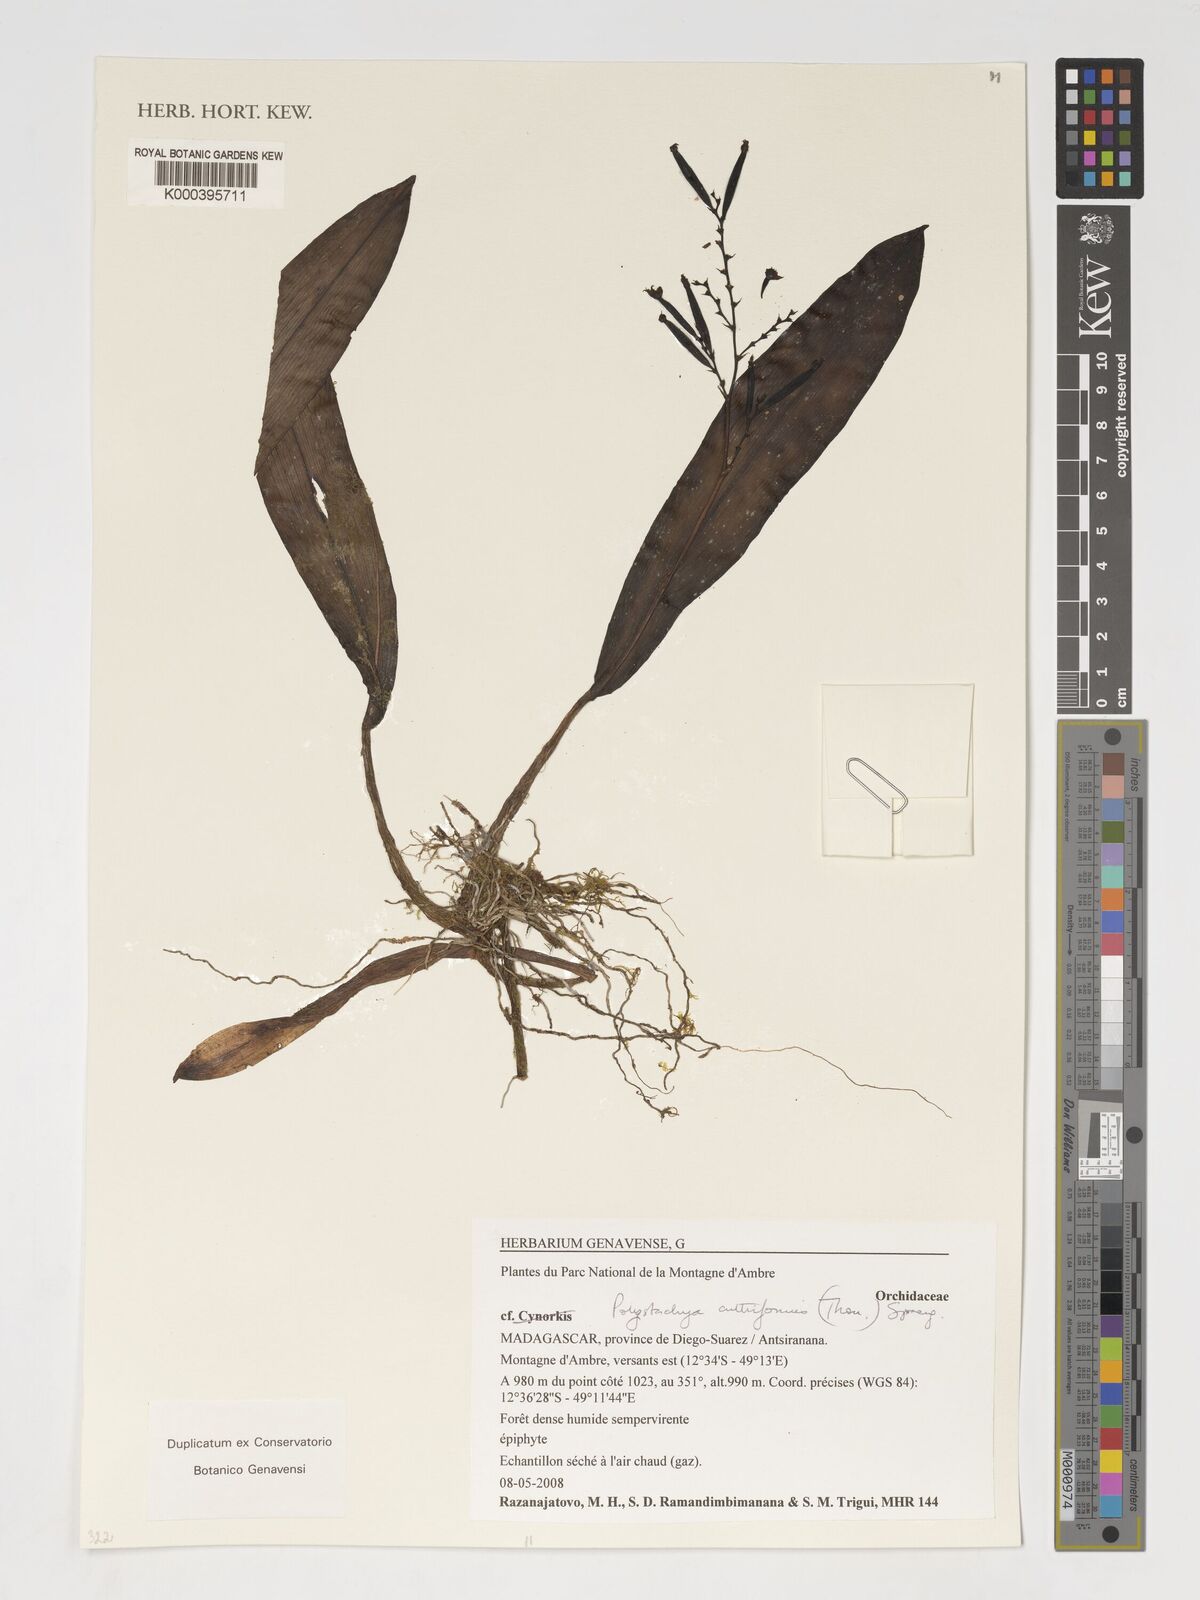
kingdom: Plantae
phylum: Tracheophyta
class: Liliopsida
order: Asparagales
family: Orchidaceae
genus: Polystachya
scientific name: Polystachya cultriformis
